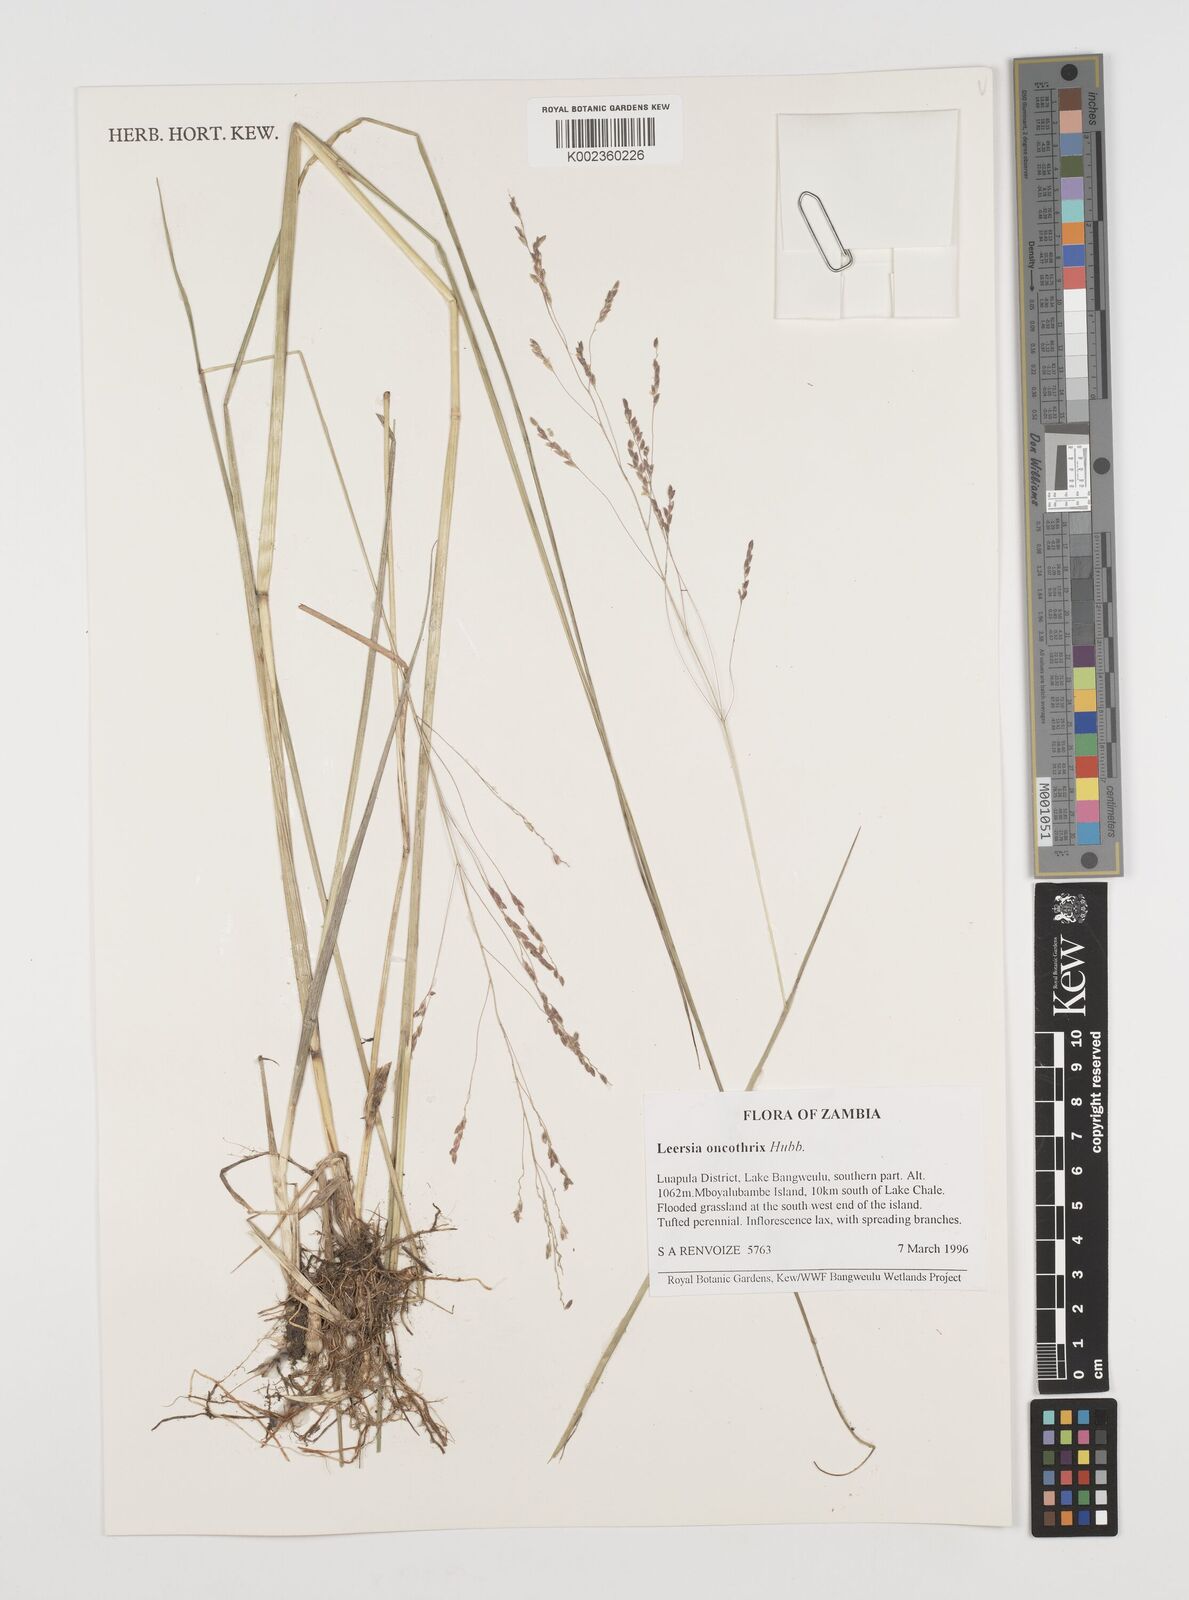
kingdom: Plantae
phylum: Tracheophyta
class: Liliopsida
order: Poales
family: Poaceae
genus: Leersia
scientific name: Leersia oncothrix
